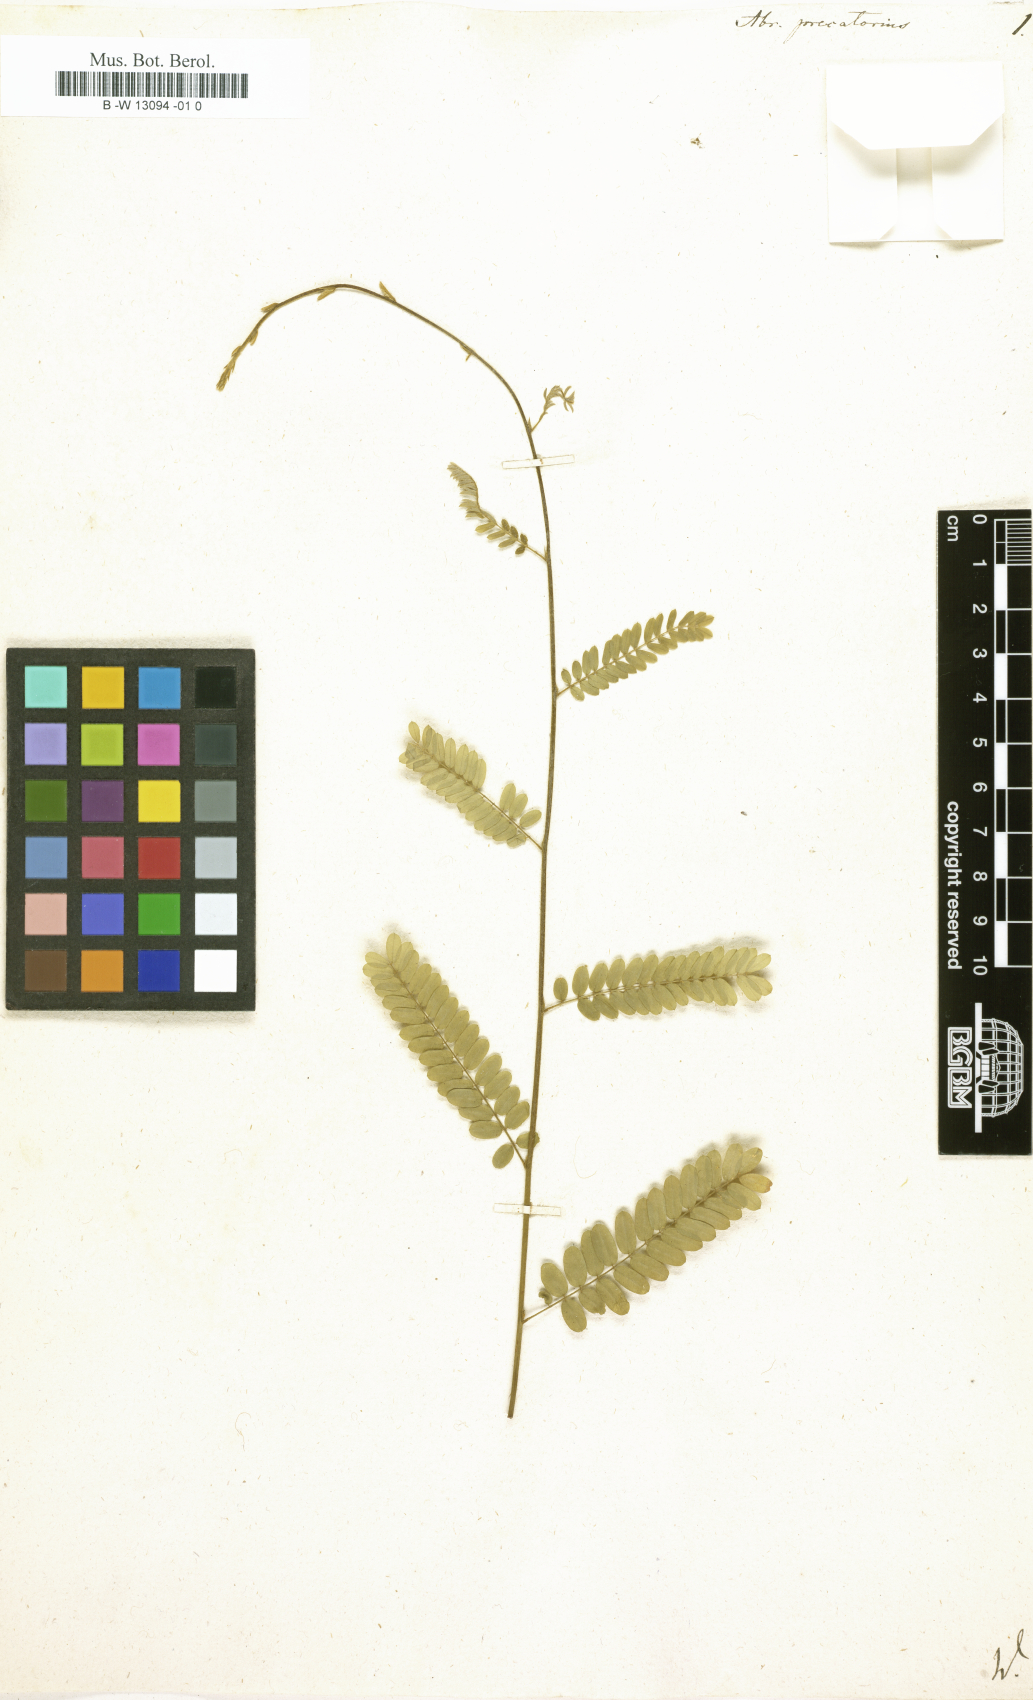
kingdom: Plantae
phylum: Tracheophyta
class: Magnoliopsida
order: Fabales
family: Fabaceae
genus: Abrus
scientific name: Abrus precatorius
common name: Rosarypea
